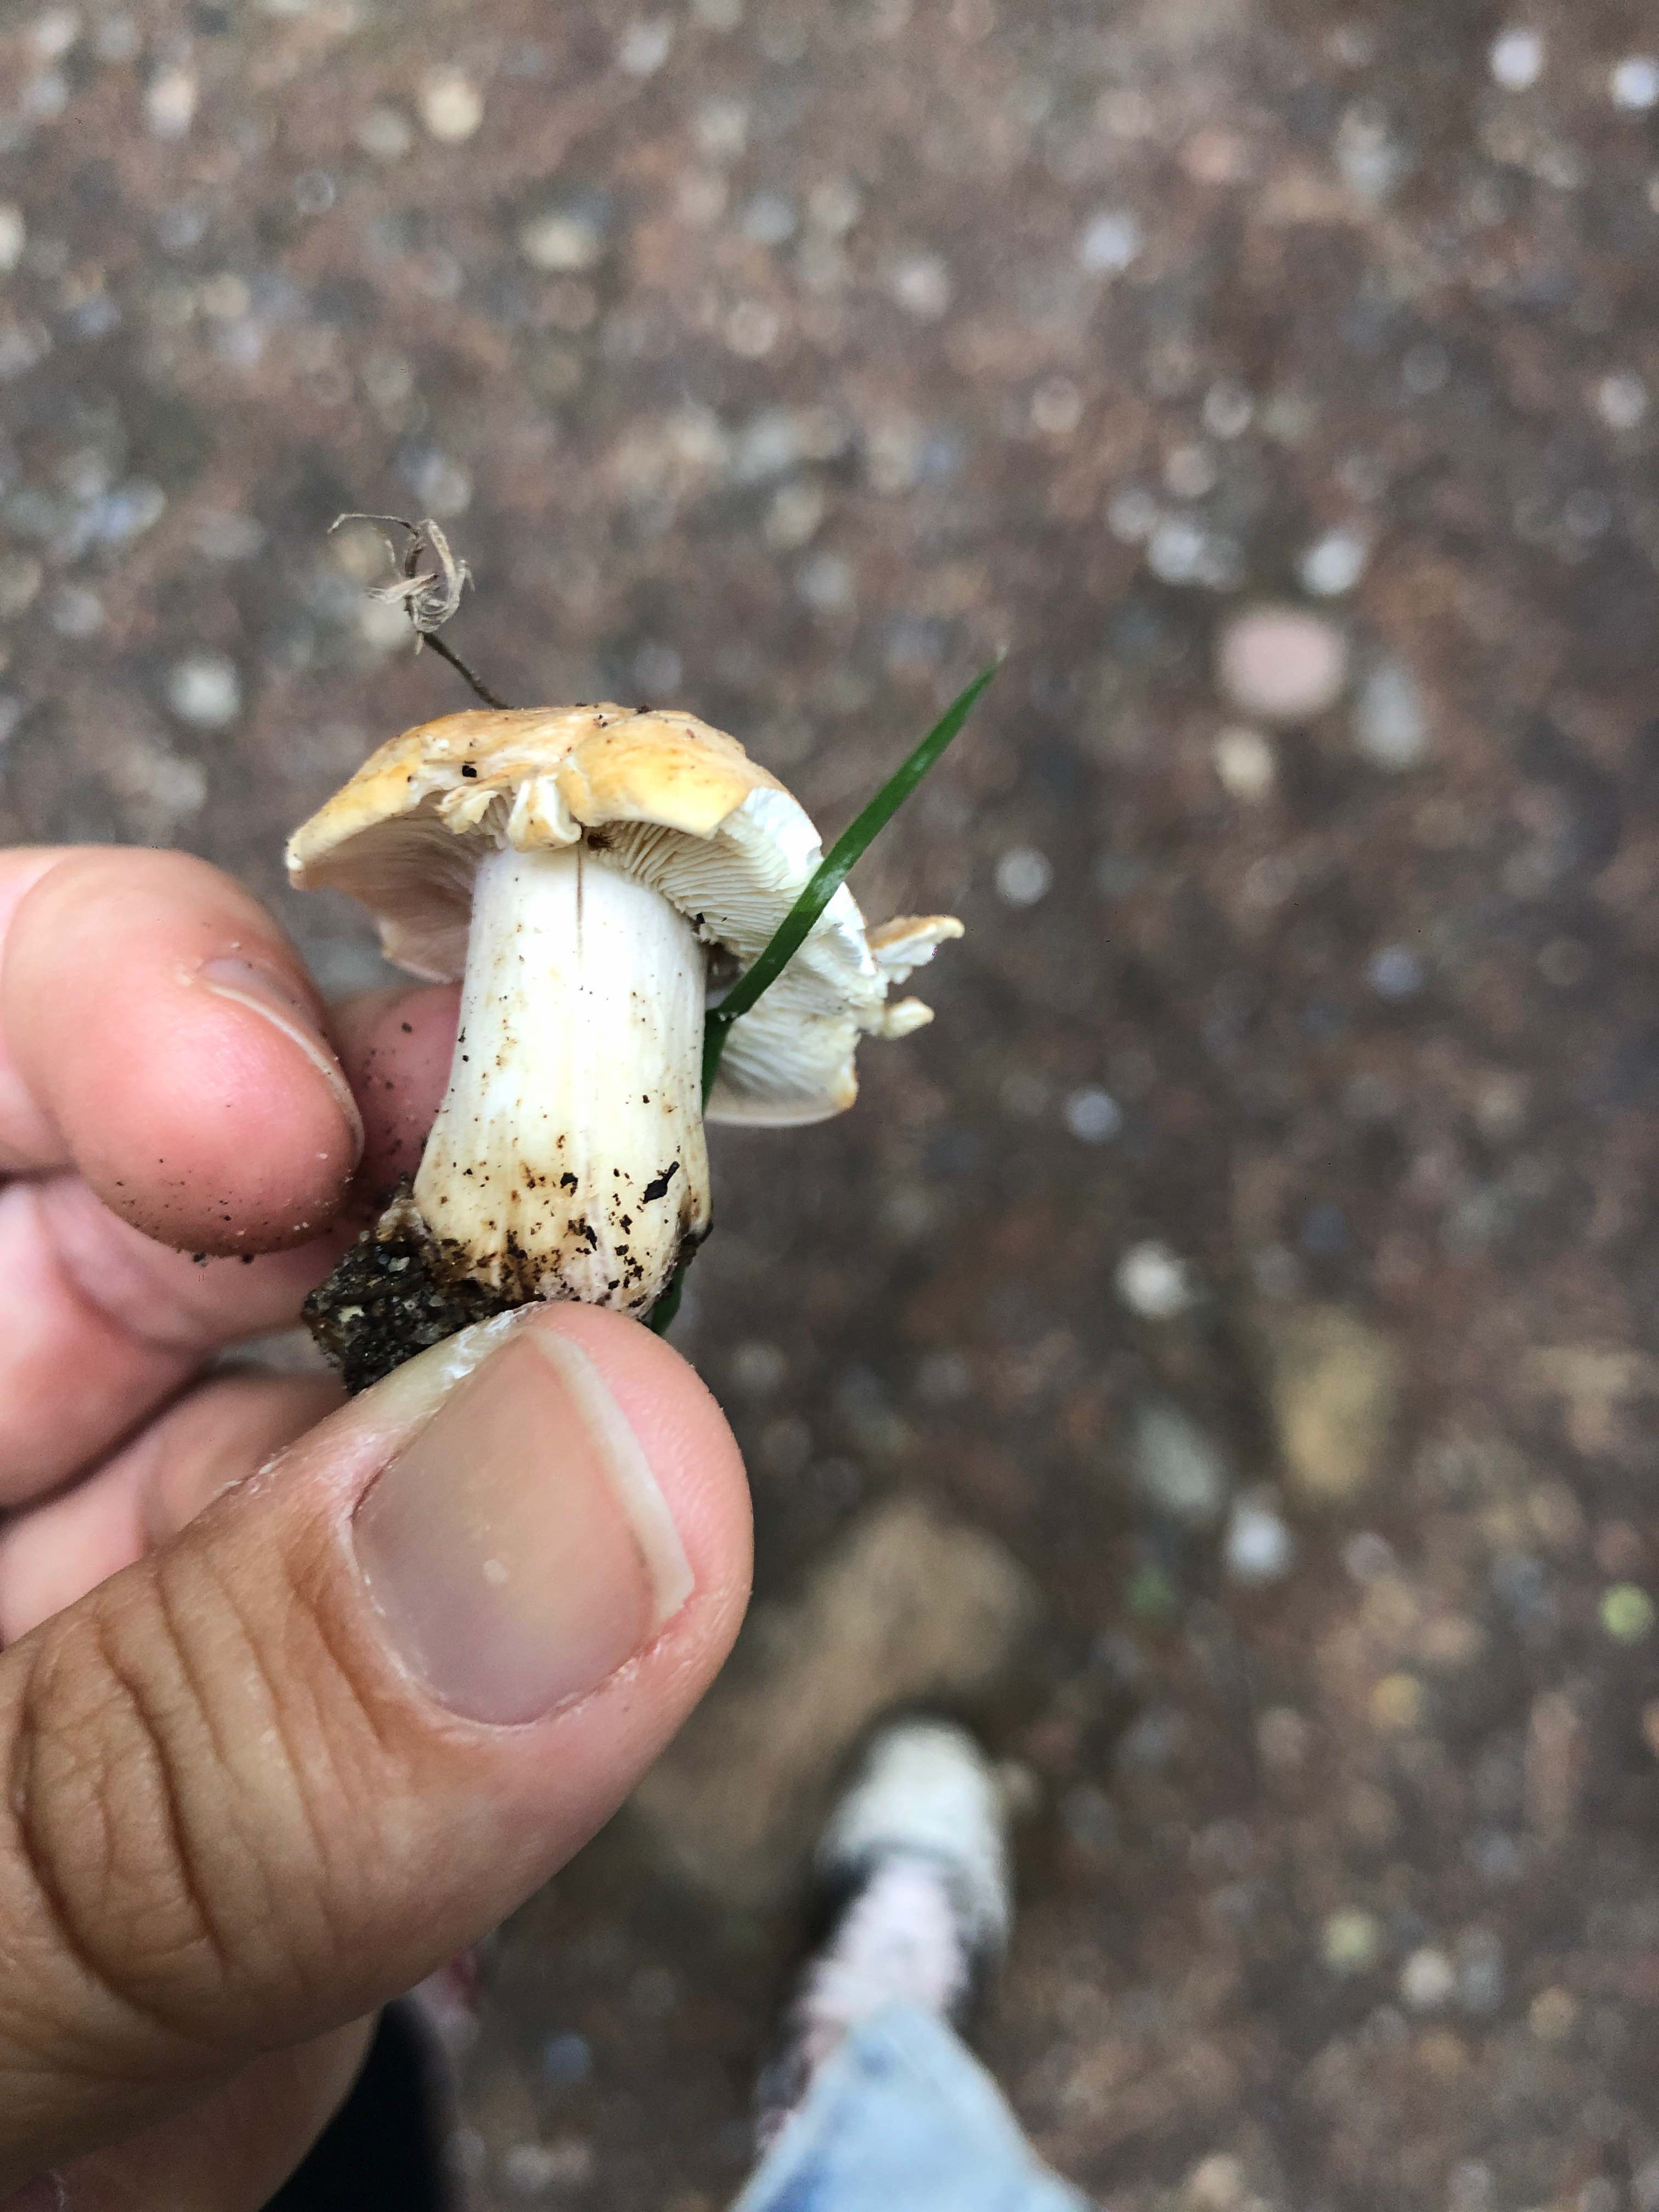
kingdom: Fungi
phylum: Basidiomycota
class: Agaricomycetes
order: Agaricales
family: Lyophyllaceae
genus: Calocybe
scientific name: Calocybe gambosa
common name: vårmusseron
